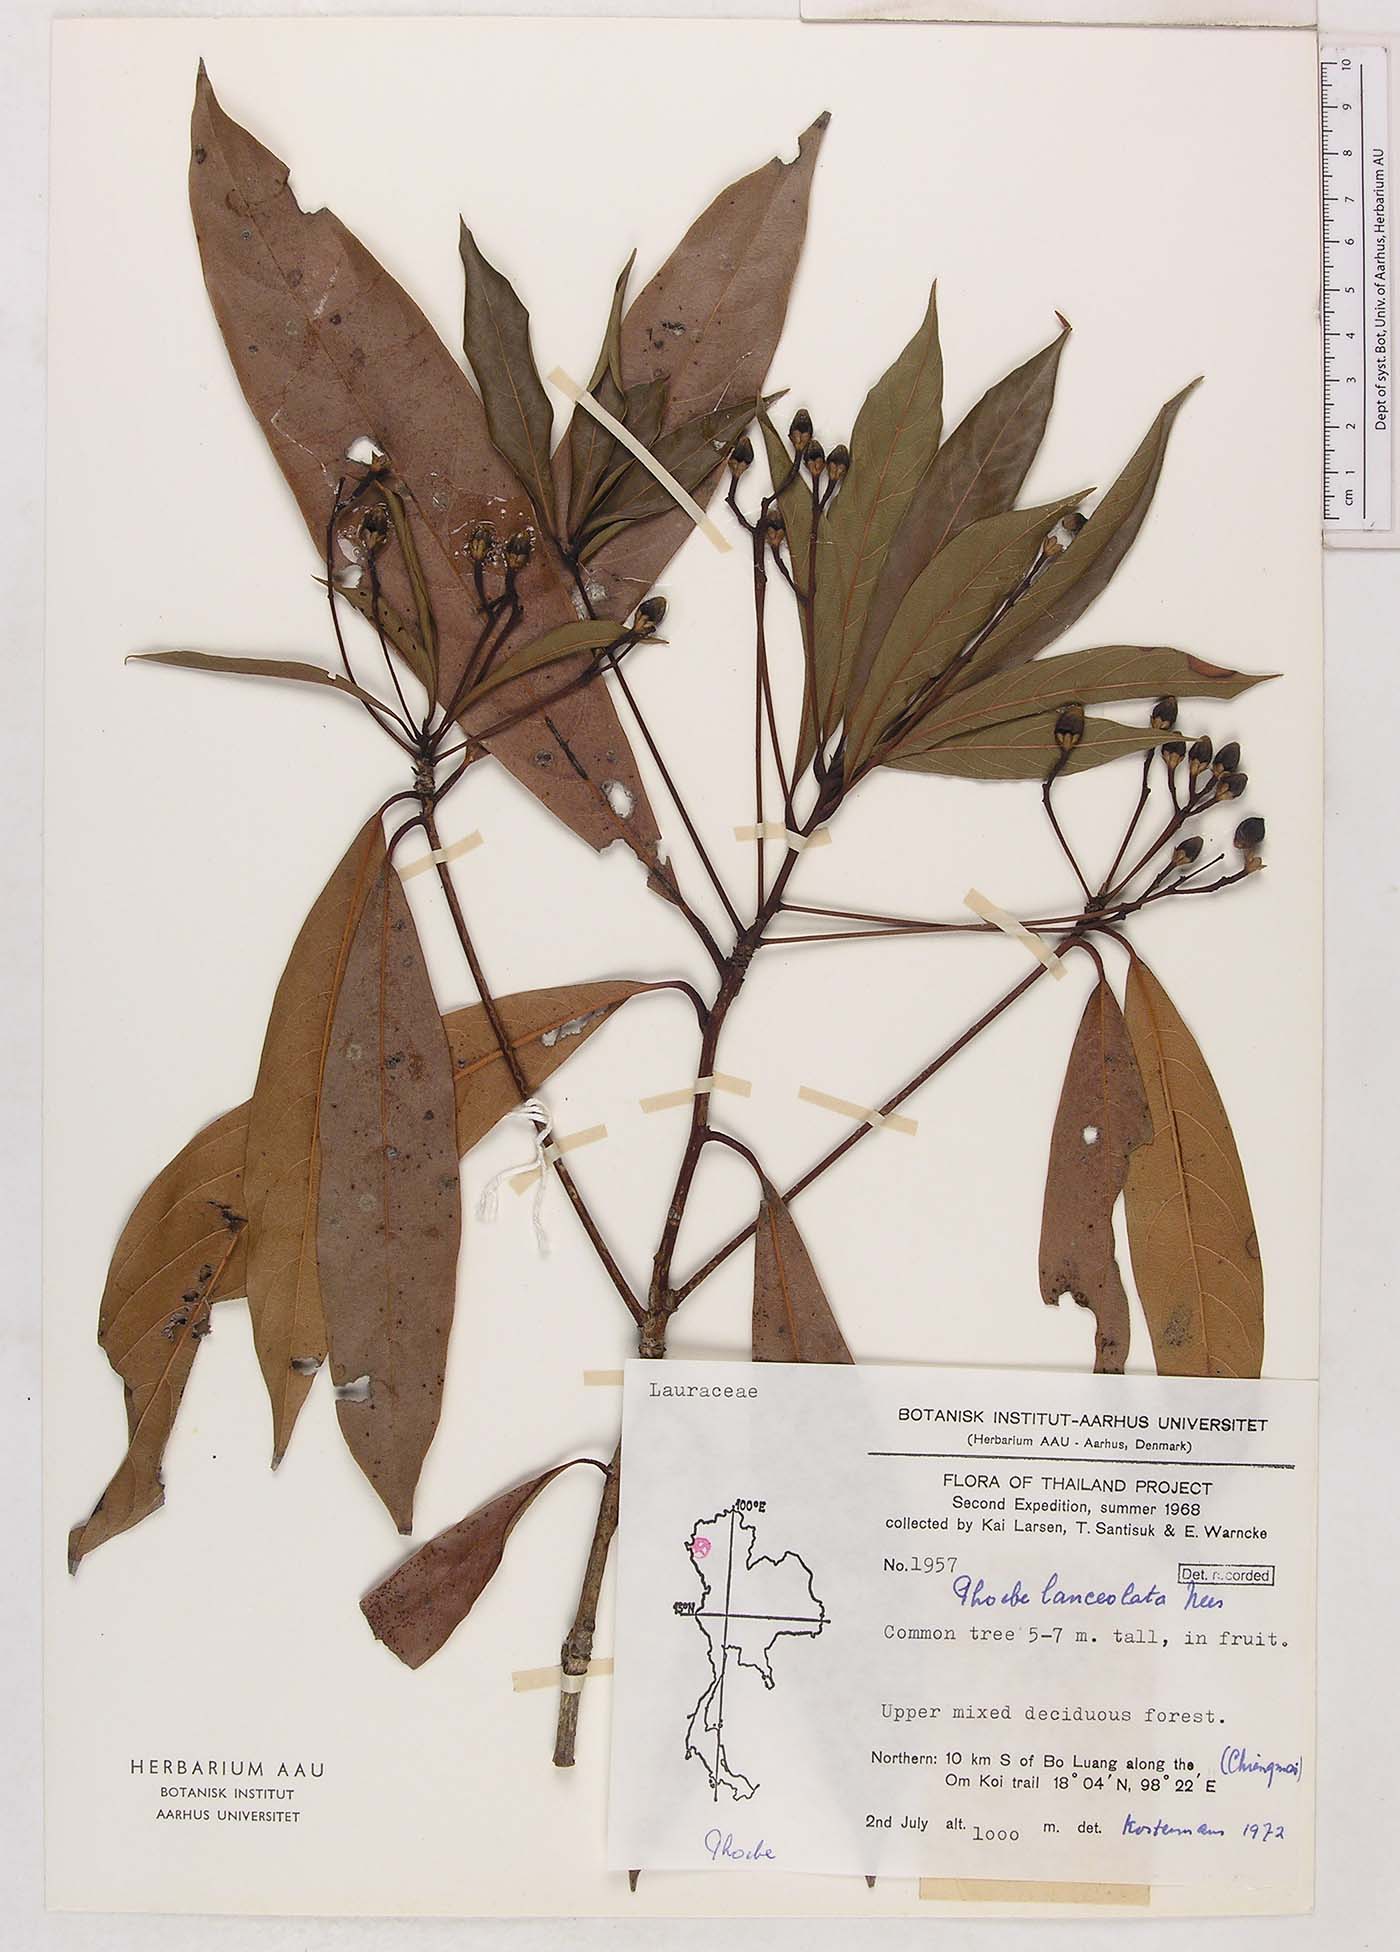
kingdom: Plantae
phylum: Tracheophyta
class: Magnoliopsida
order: Laurales
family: Lauraceae
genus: Phoebe
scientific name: Phoebe lanceolata
